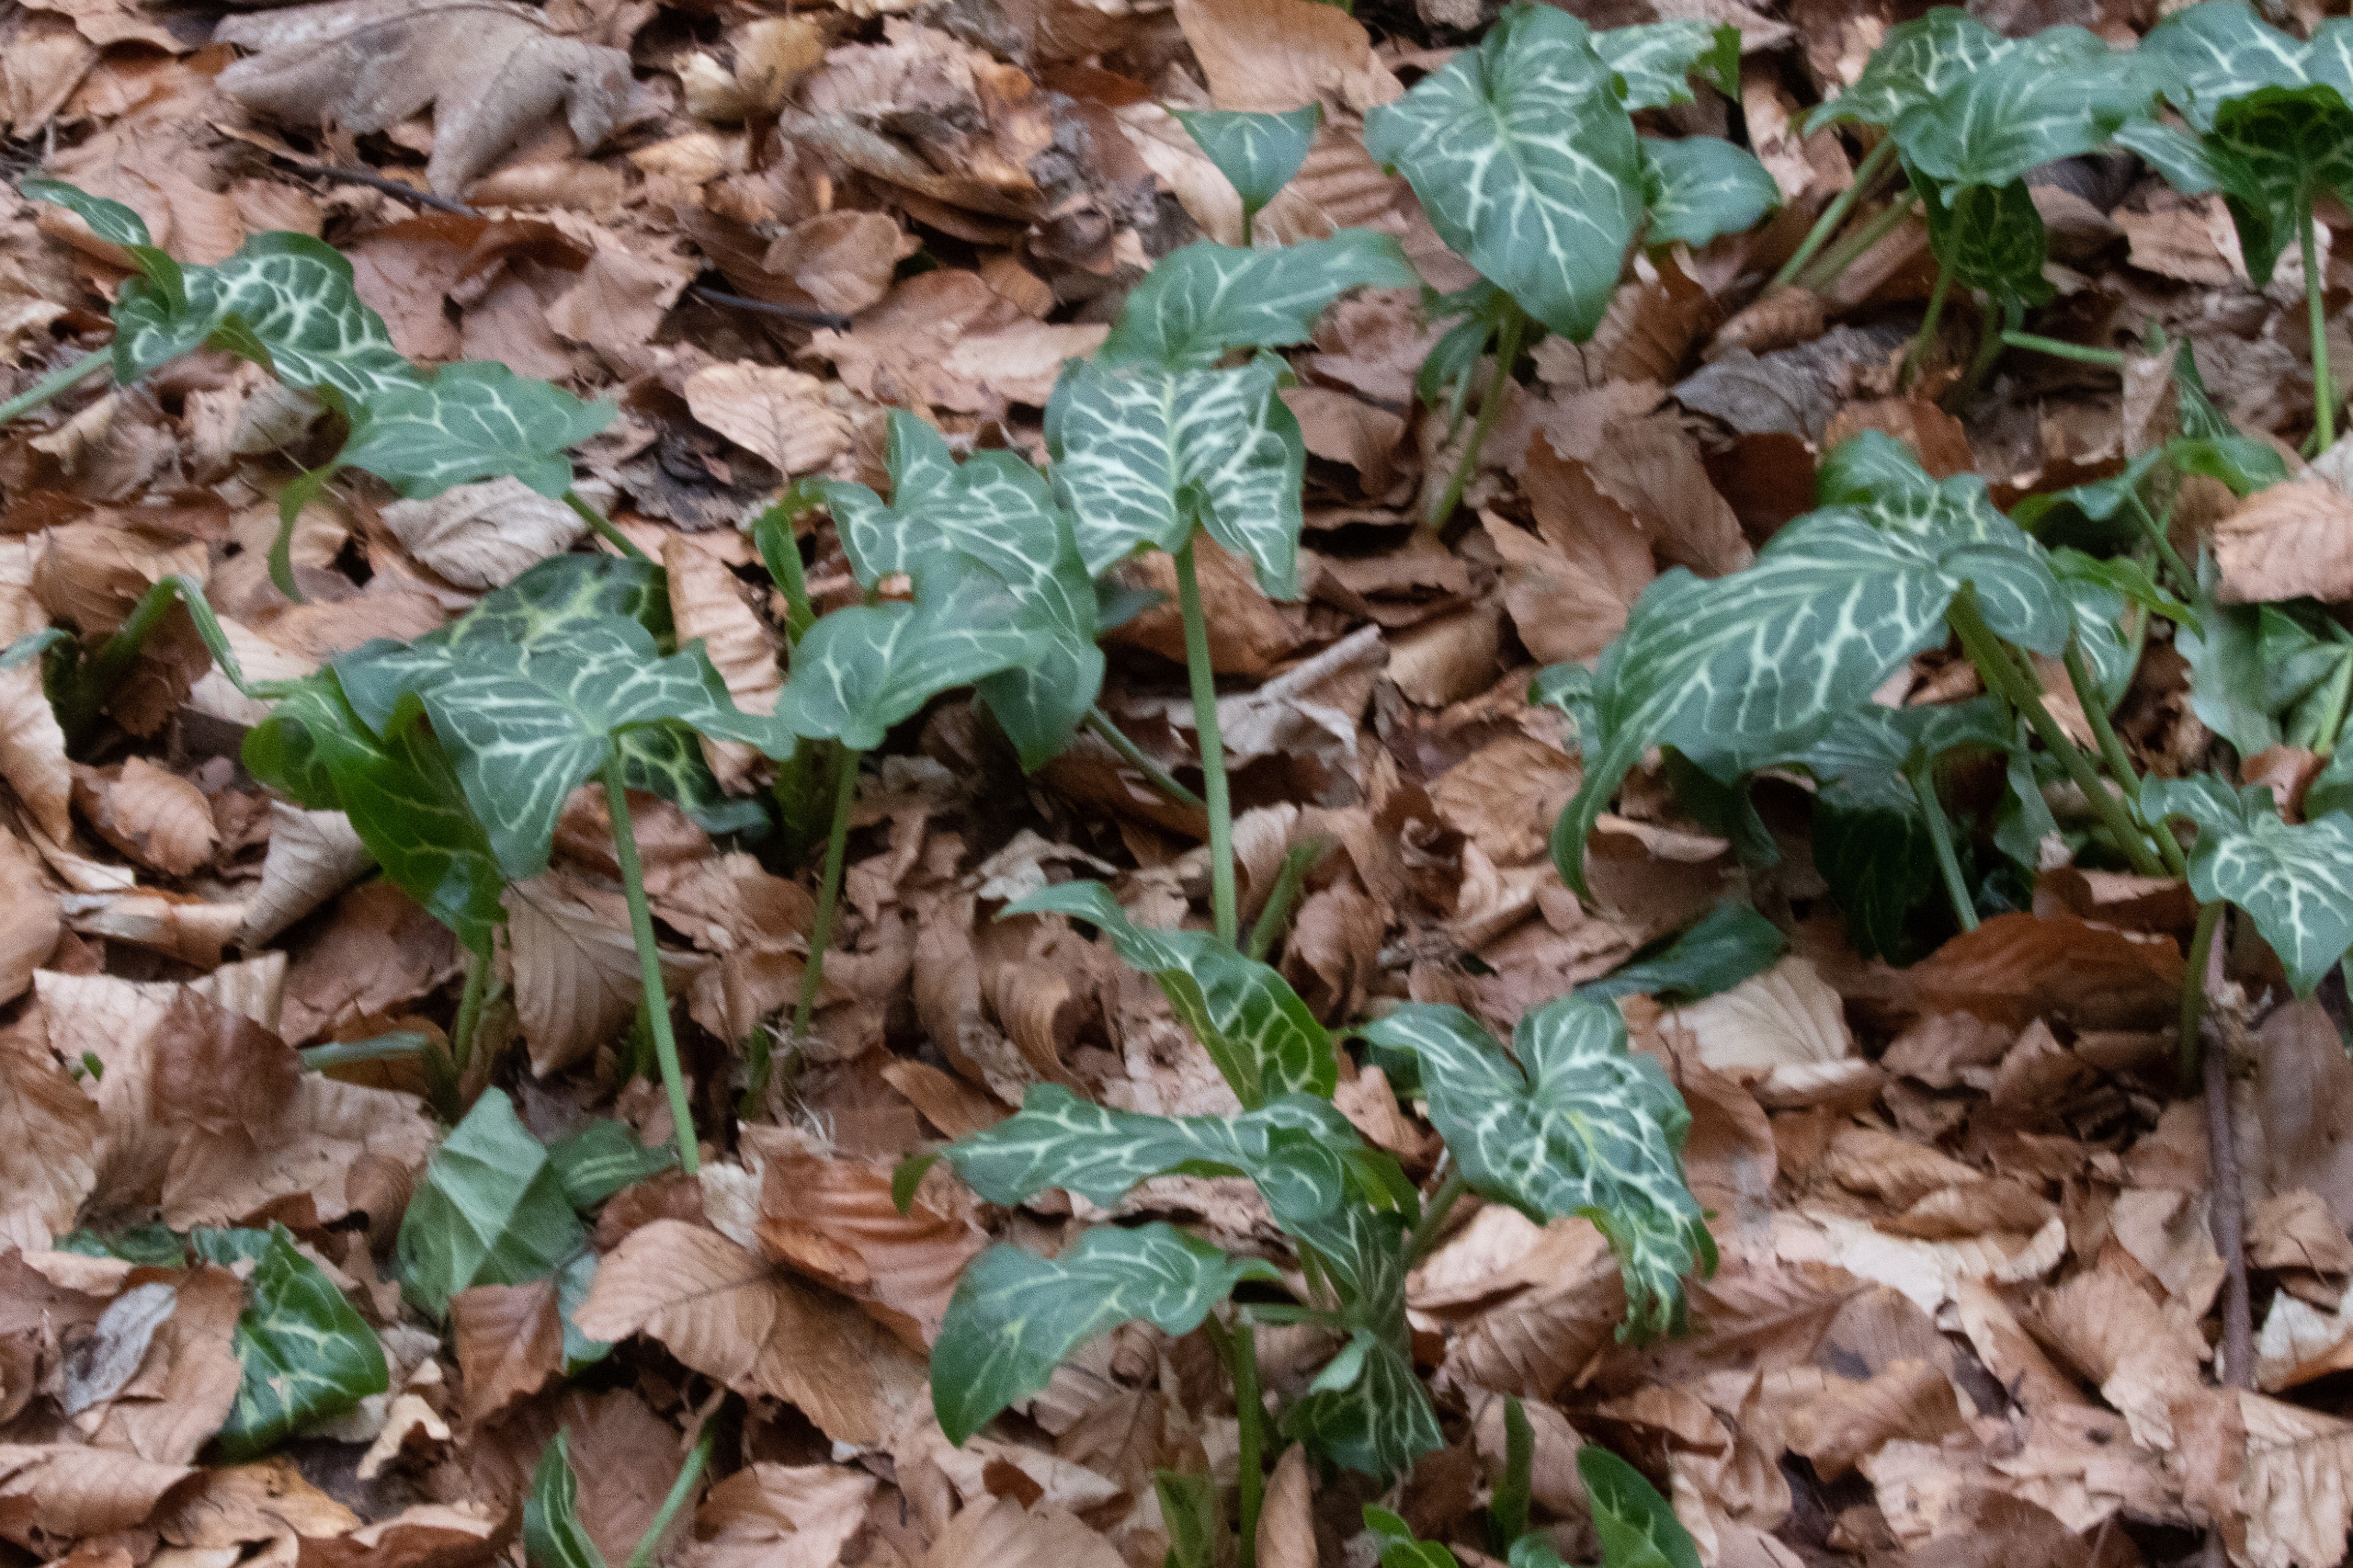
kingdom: Plantae
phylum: Tracheophyta
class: Liliopsida
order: Alismatales
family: Araceae
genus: Arum
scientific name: Arum italicum
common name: Italiensk arum
